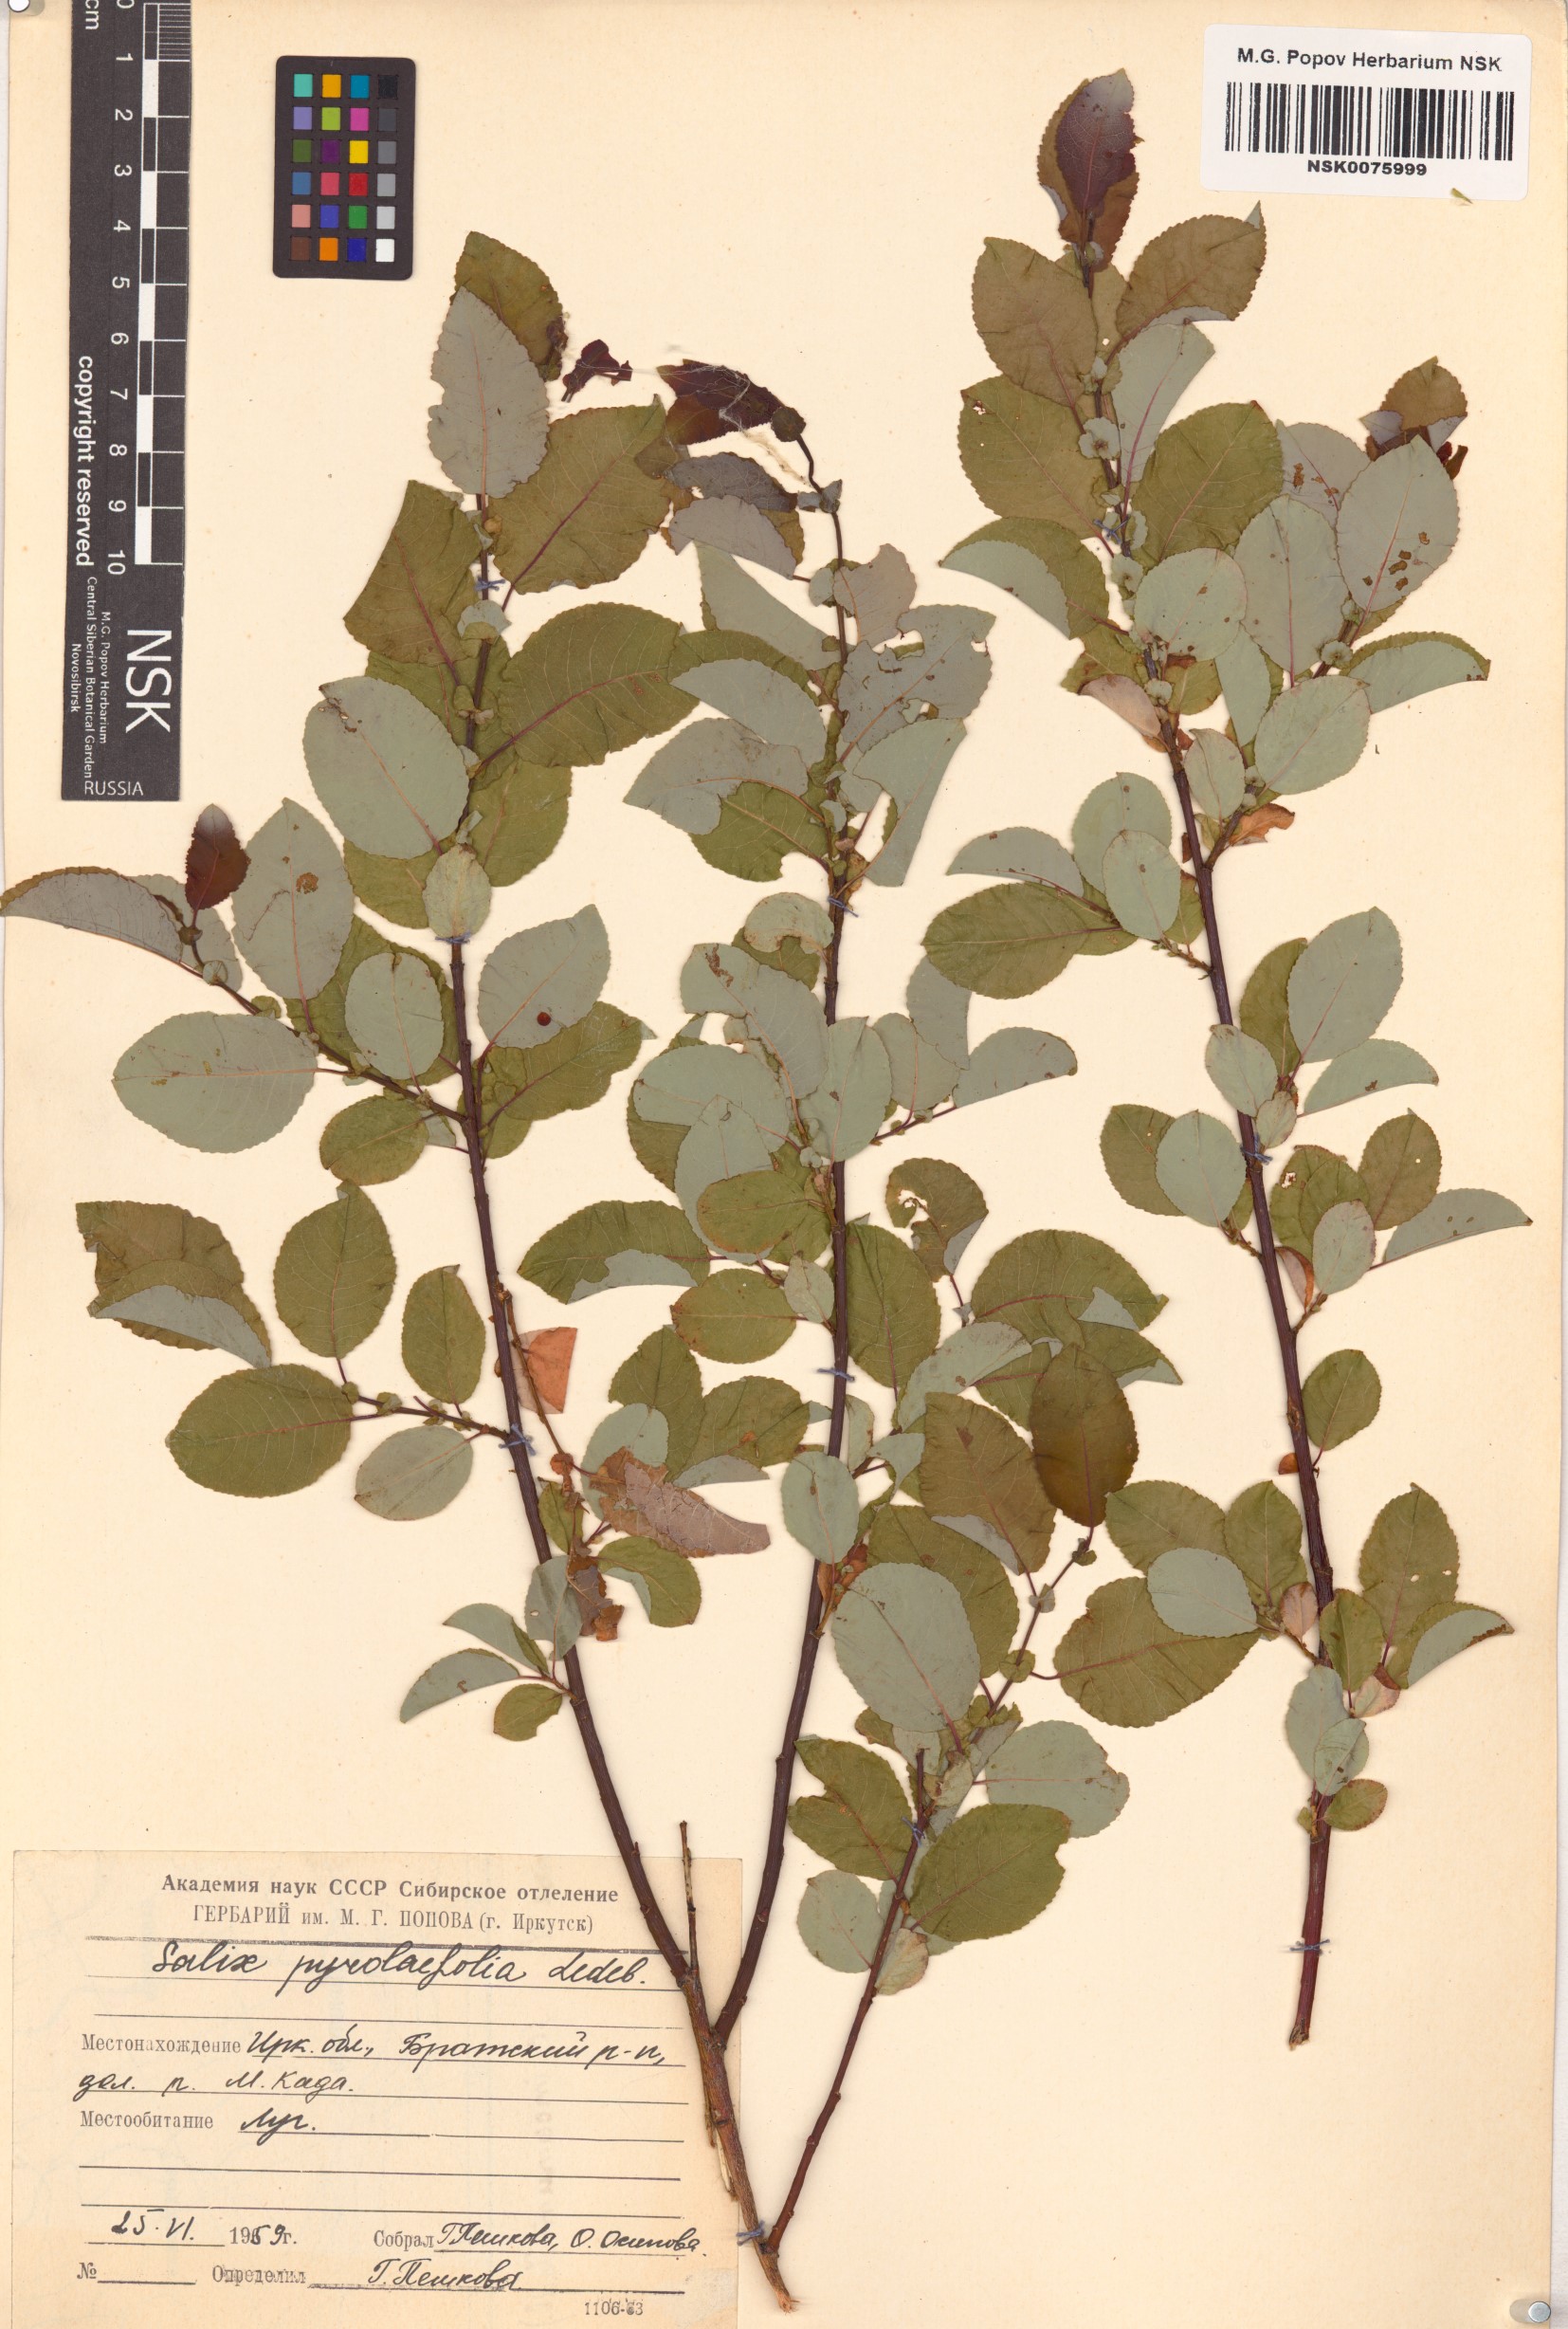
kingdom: Plantae
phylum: Tracheophyta
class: Magnoliopsida
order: Malpighiales
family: Salicaceae
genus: Salix
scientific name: Salix pyrolifolia
